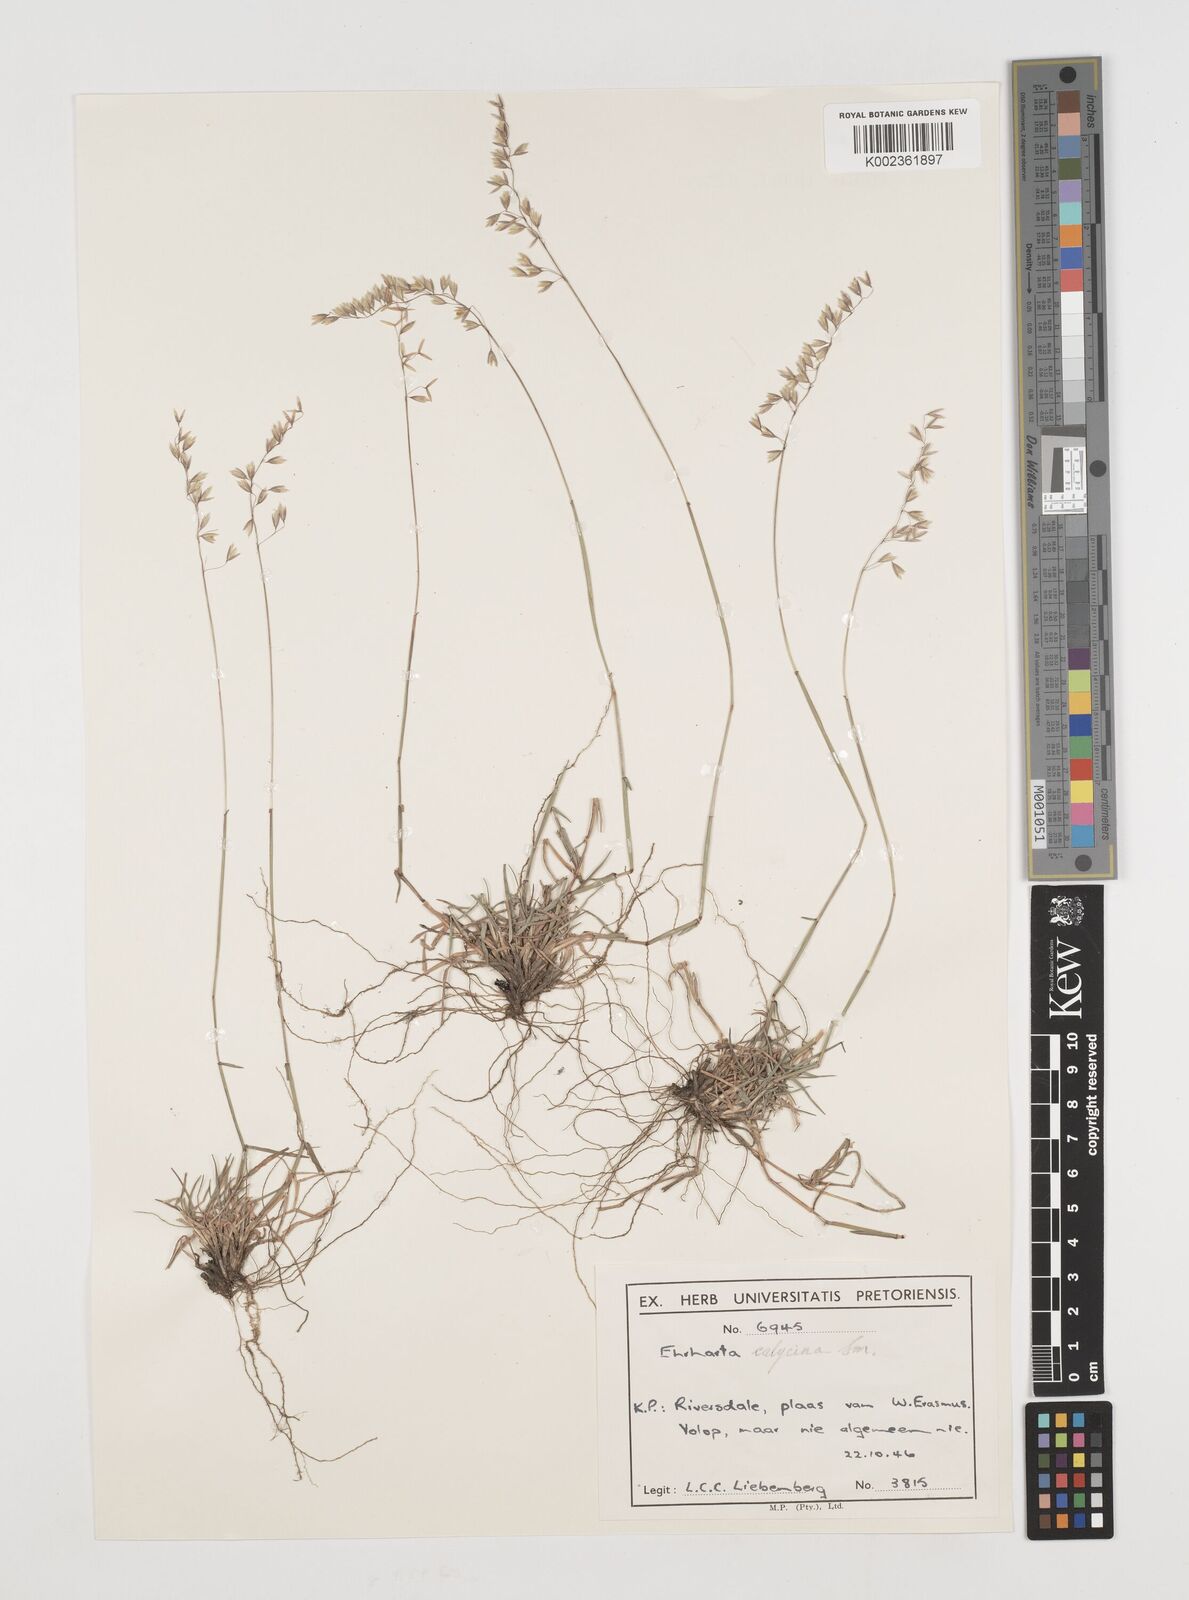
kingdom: Plantae
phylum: Tracheophyta
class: Liliopsida
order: Poales
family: Poaceae
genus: Ehrharta
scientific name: Ehrharta calycina
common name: Perennial veldtgrass
